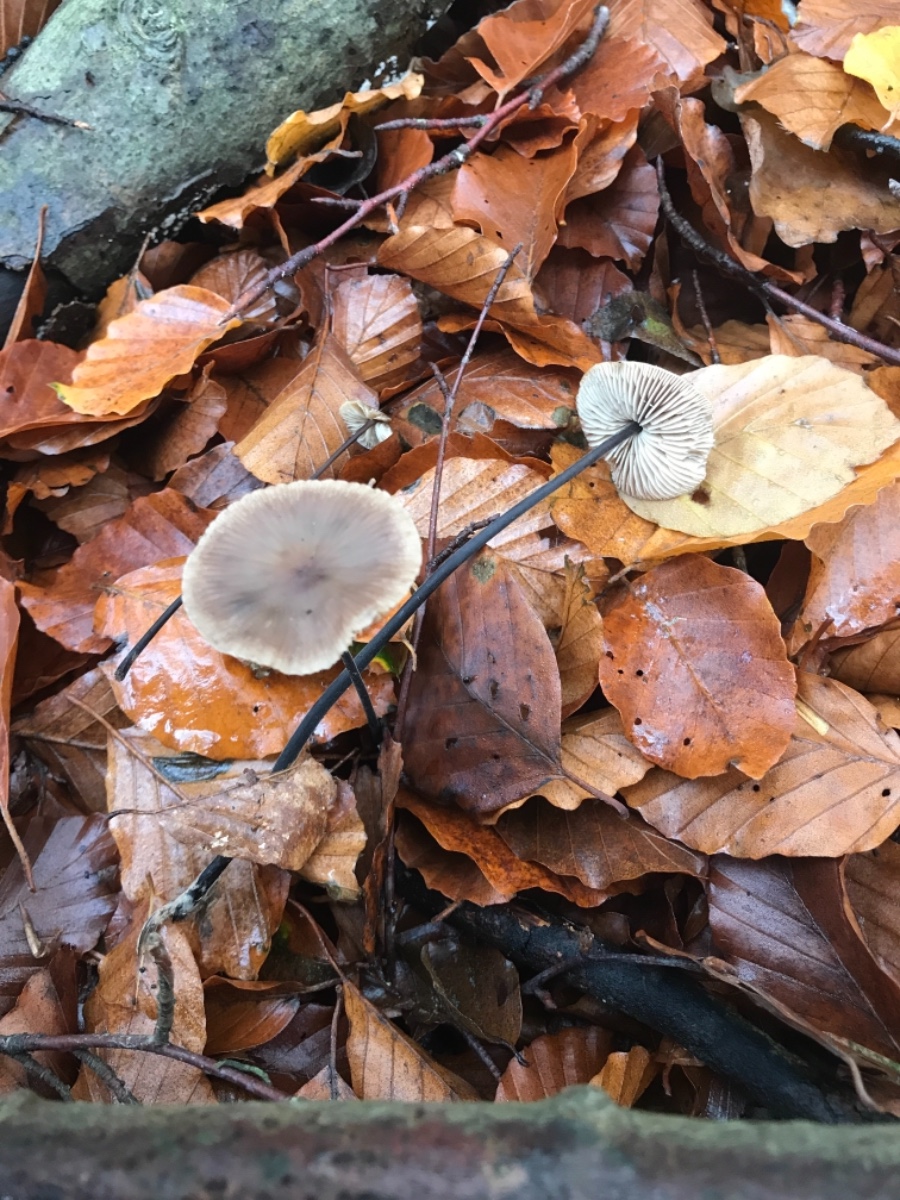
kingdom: Fungi
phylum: Basidiomycota
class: Agaricomycetes
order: Agaricales
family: Omphalotaceae
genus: Mycetinis
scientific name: Mycetinis alliaceus
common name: stor løghat
